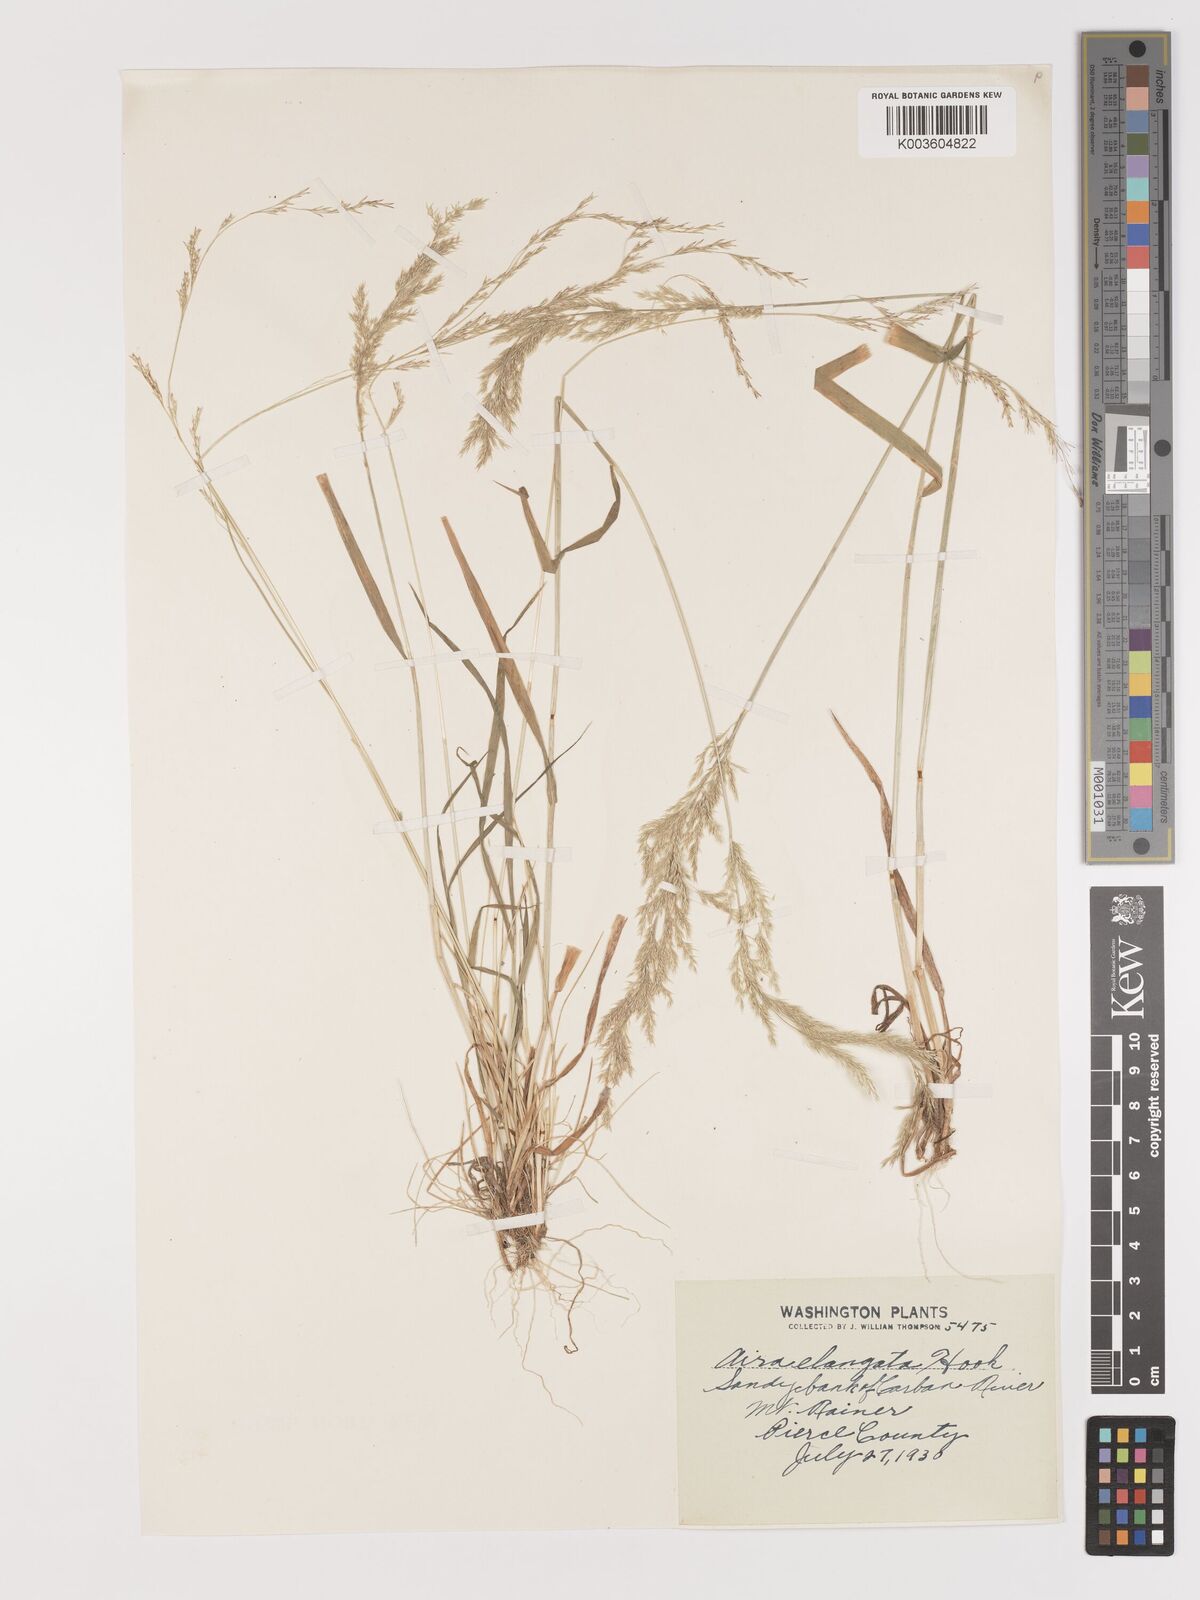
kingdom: Plantae
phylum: Tracheophyta
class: Liliopsida
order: Poales
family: Poaceae
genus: Agrostis
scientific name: Agrostis
